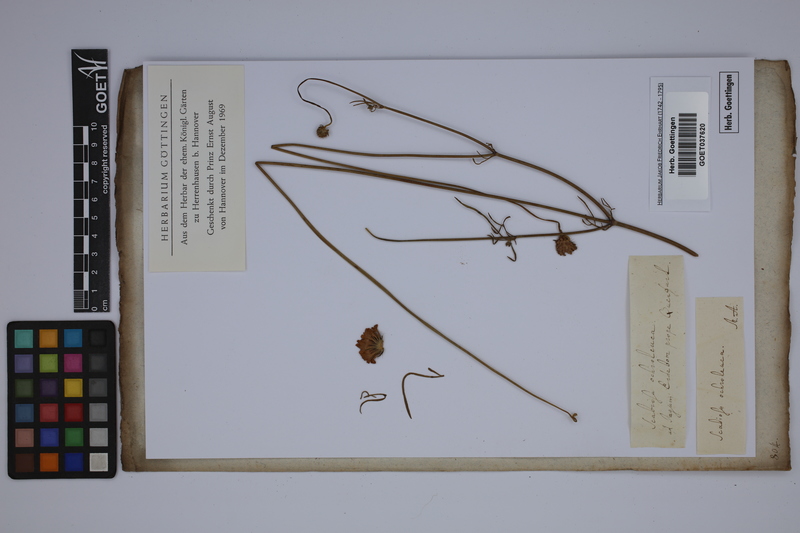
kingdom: Plantae
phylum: Tracheophyta
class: Magnoliopsida
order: Dipsacales
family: Caprifoliaceae
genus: Scabiosa
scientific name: Scabiosa austroafricana
